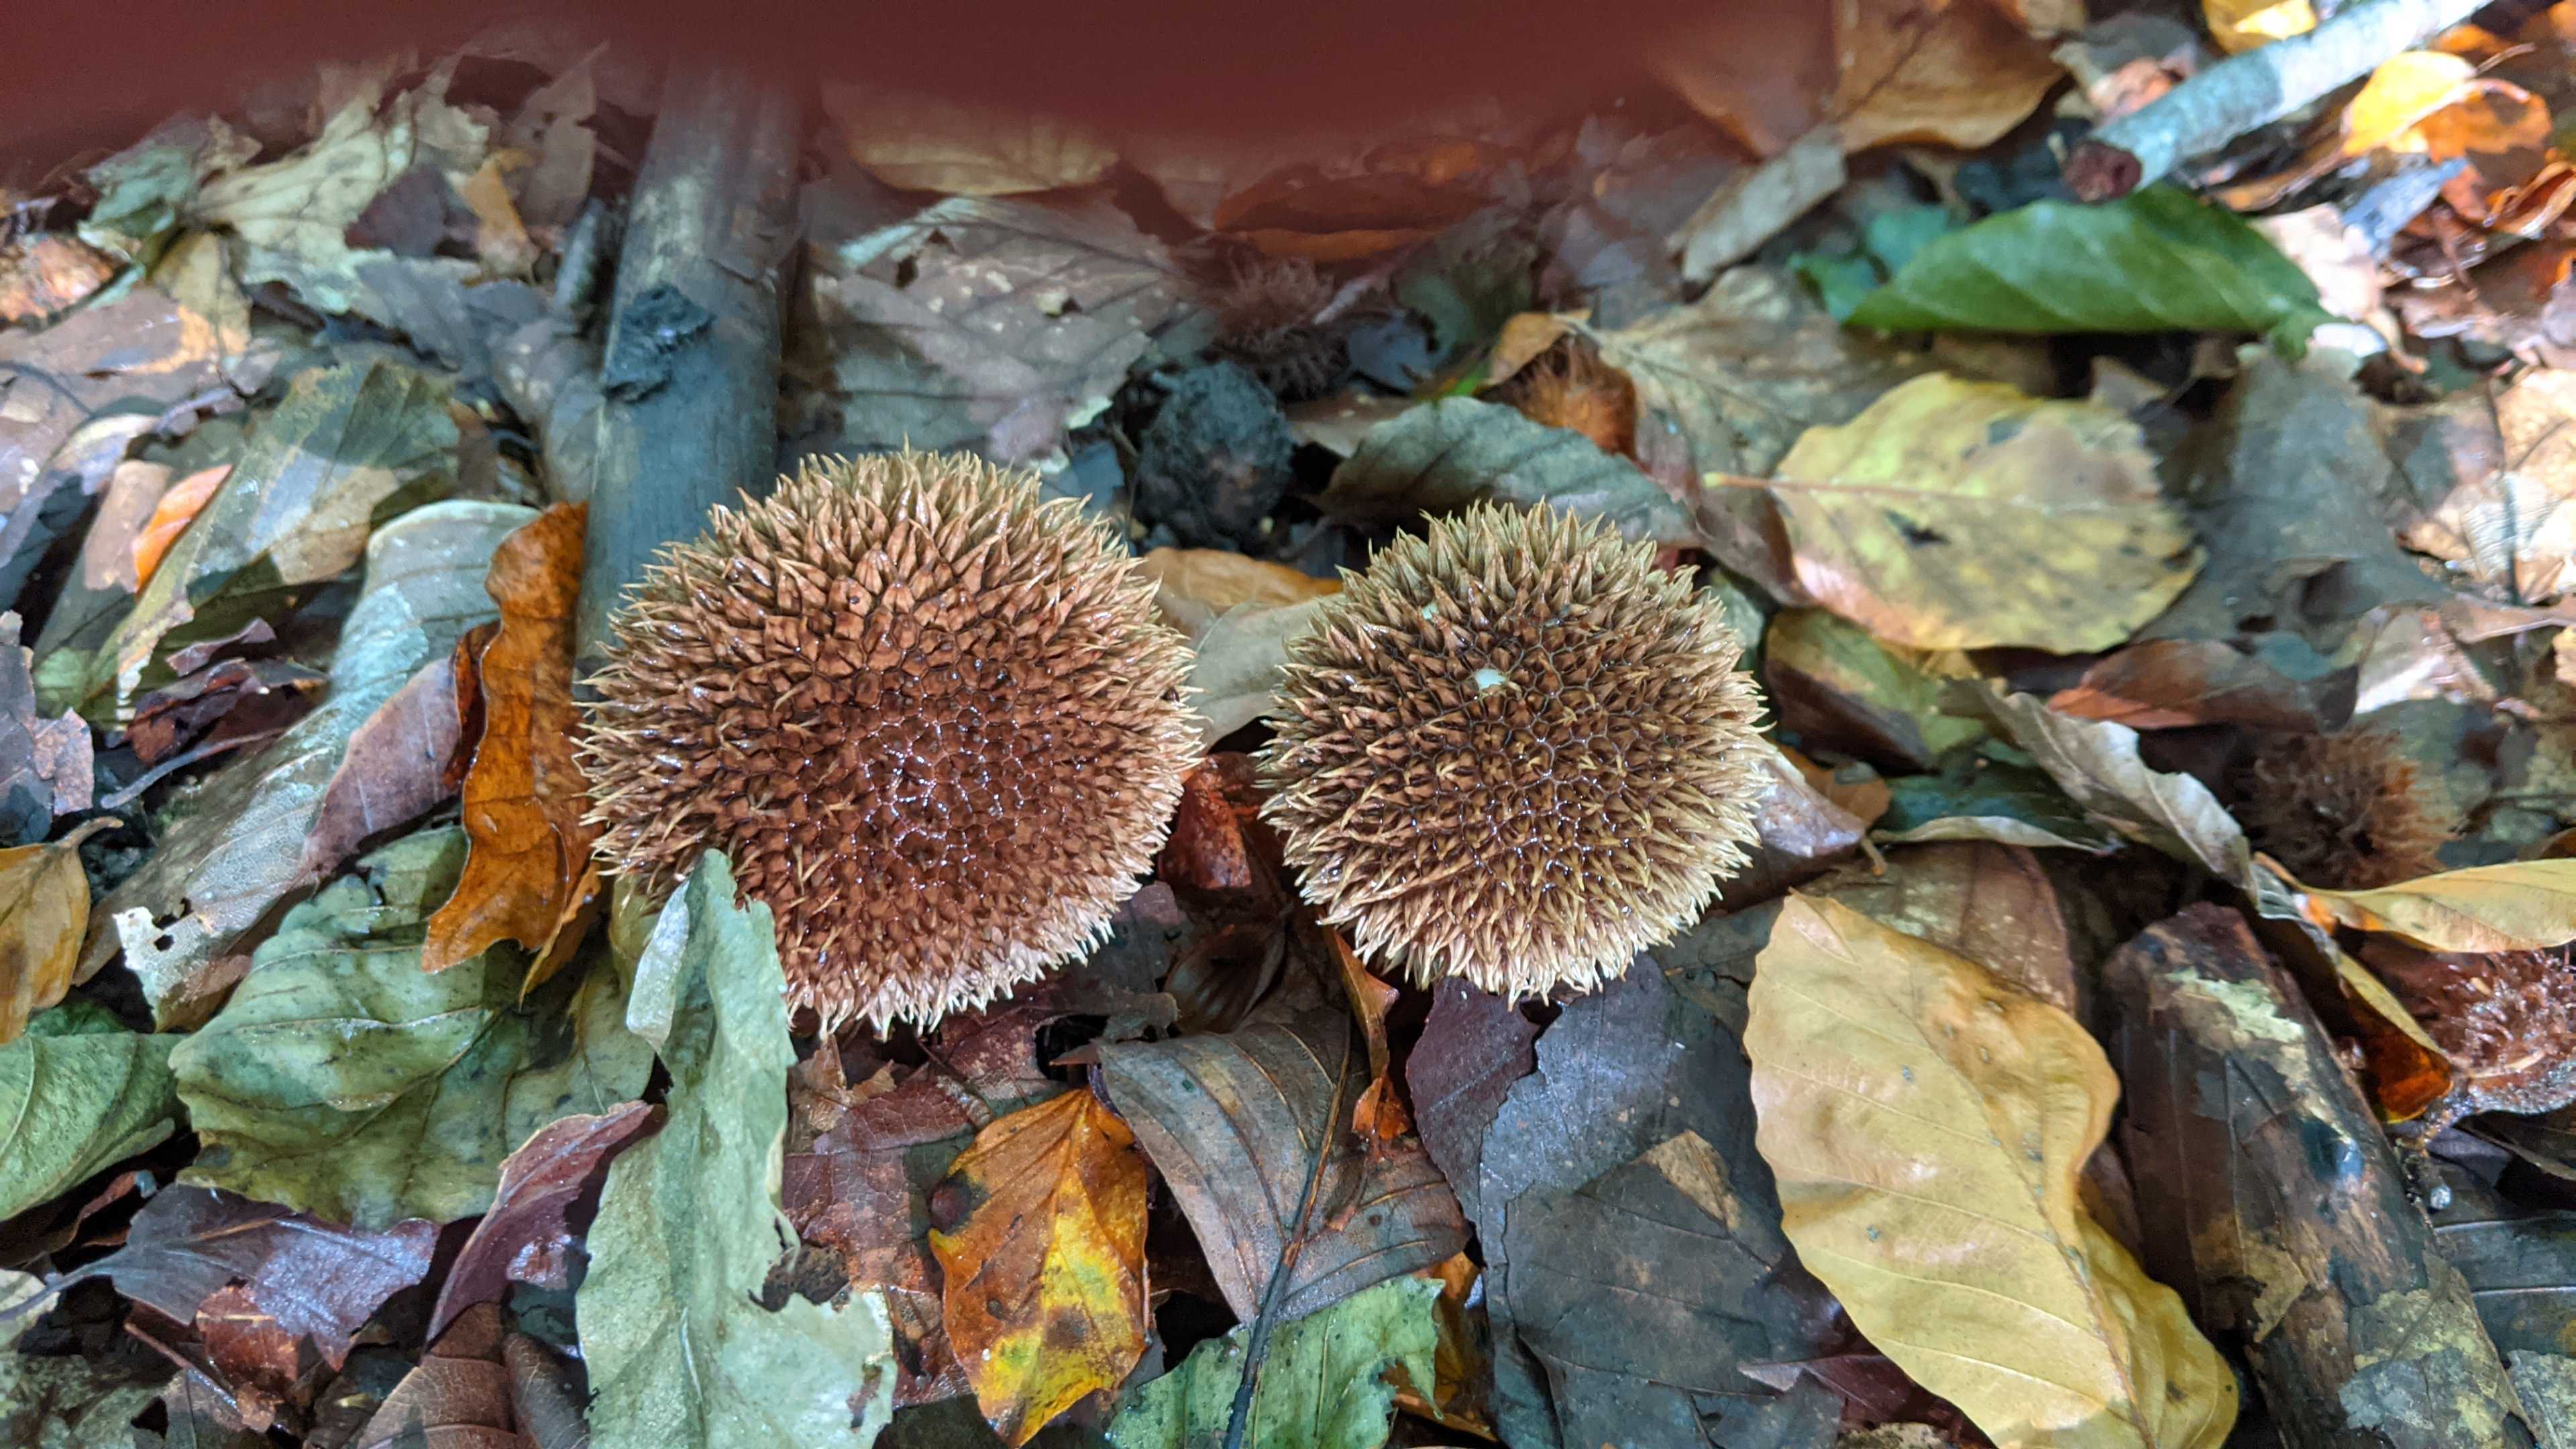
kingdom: Fungi
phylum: Basidiomycota
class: Agaricomycetes
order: Agaricales
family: Lycoperdaceae
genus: Lycoperdon
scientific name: Lycoperdon echinatum
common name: pindsvine-støvbold
